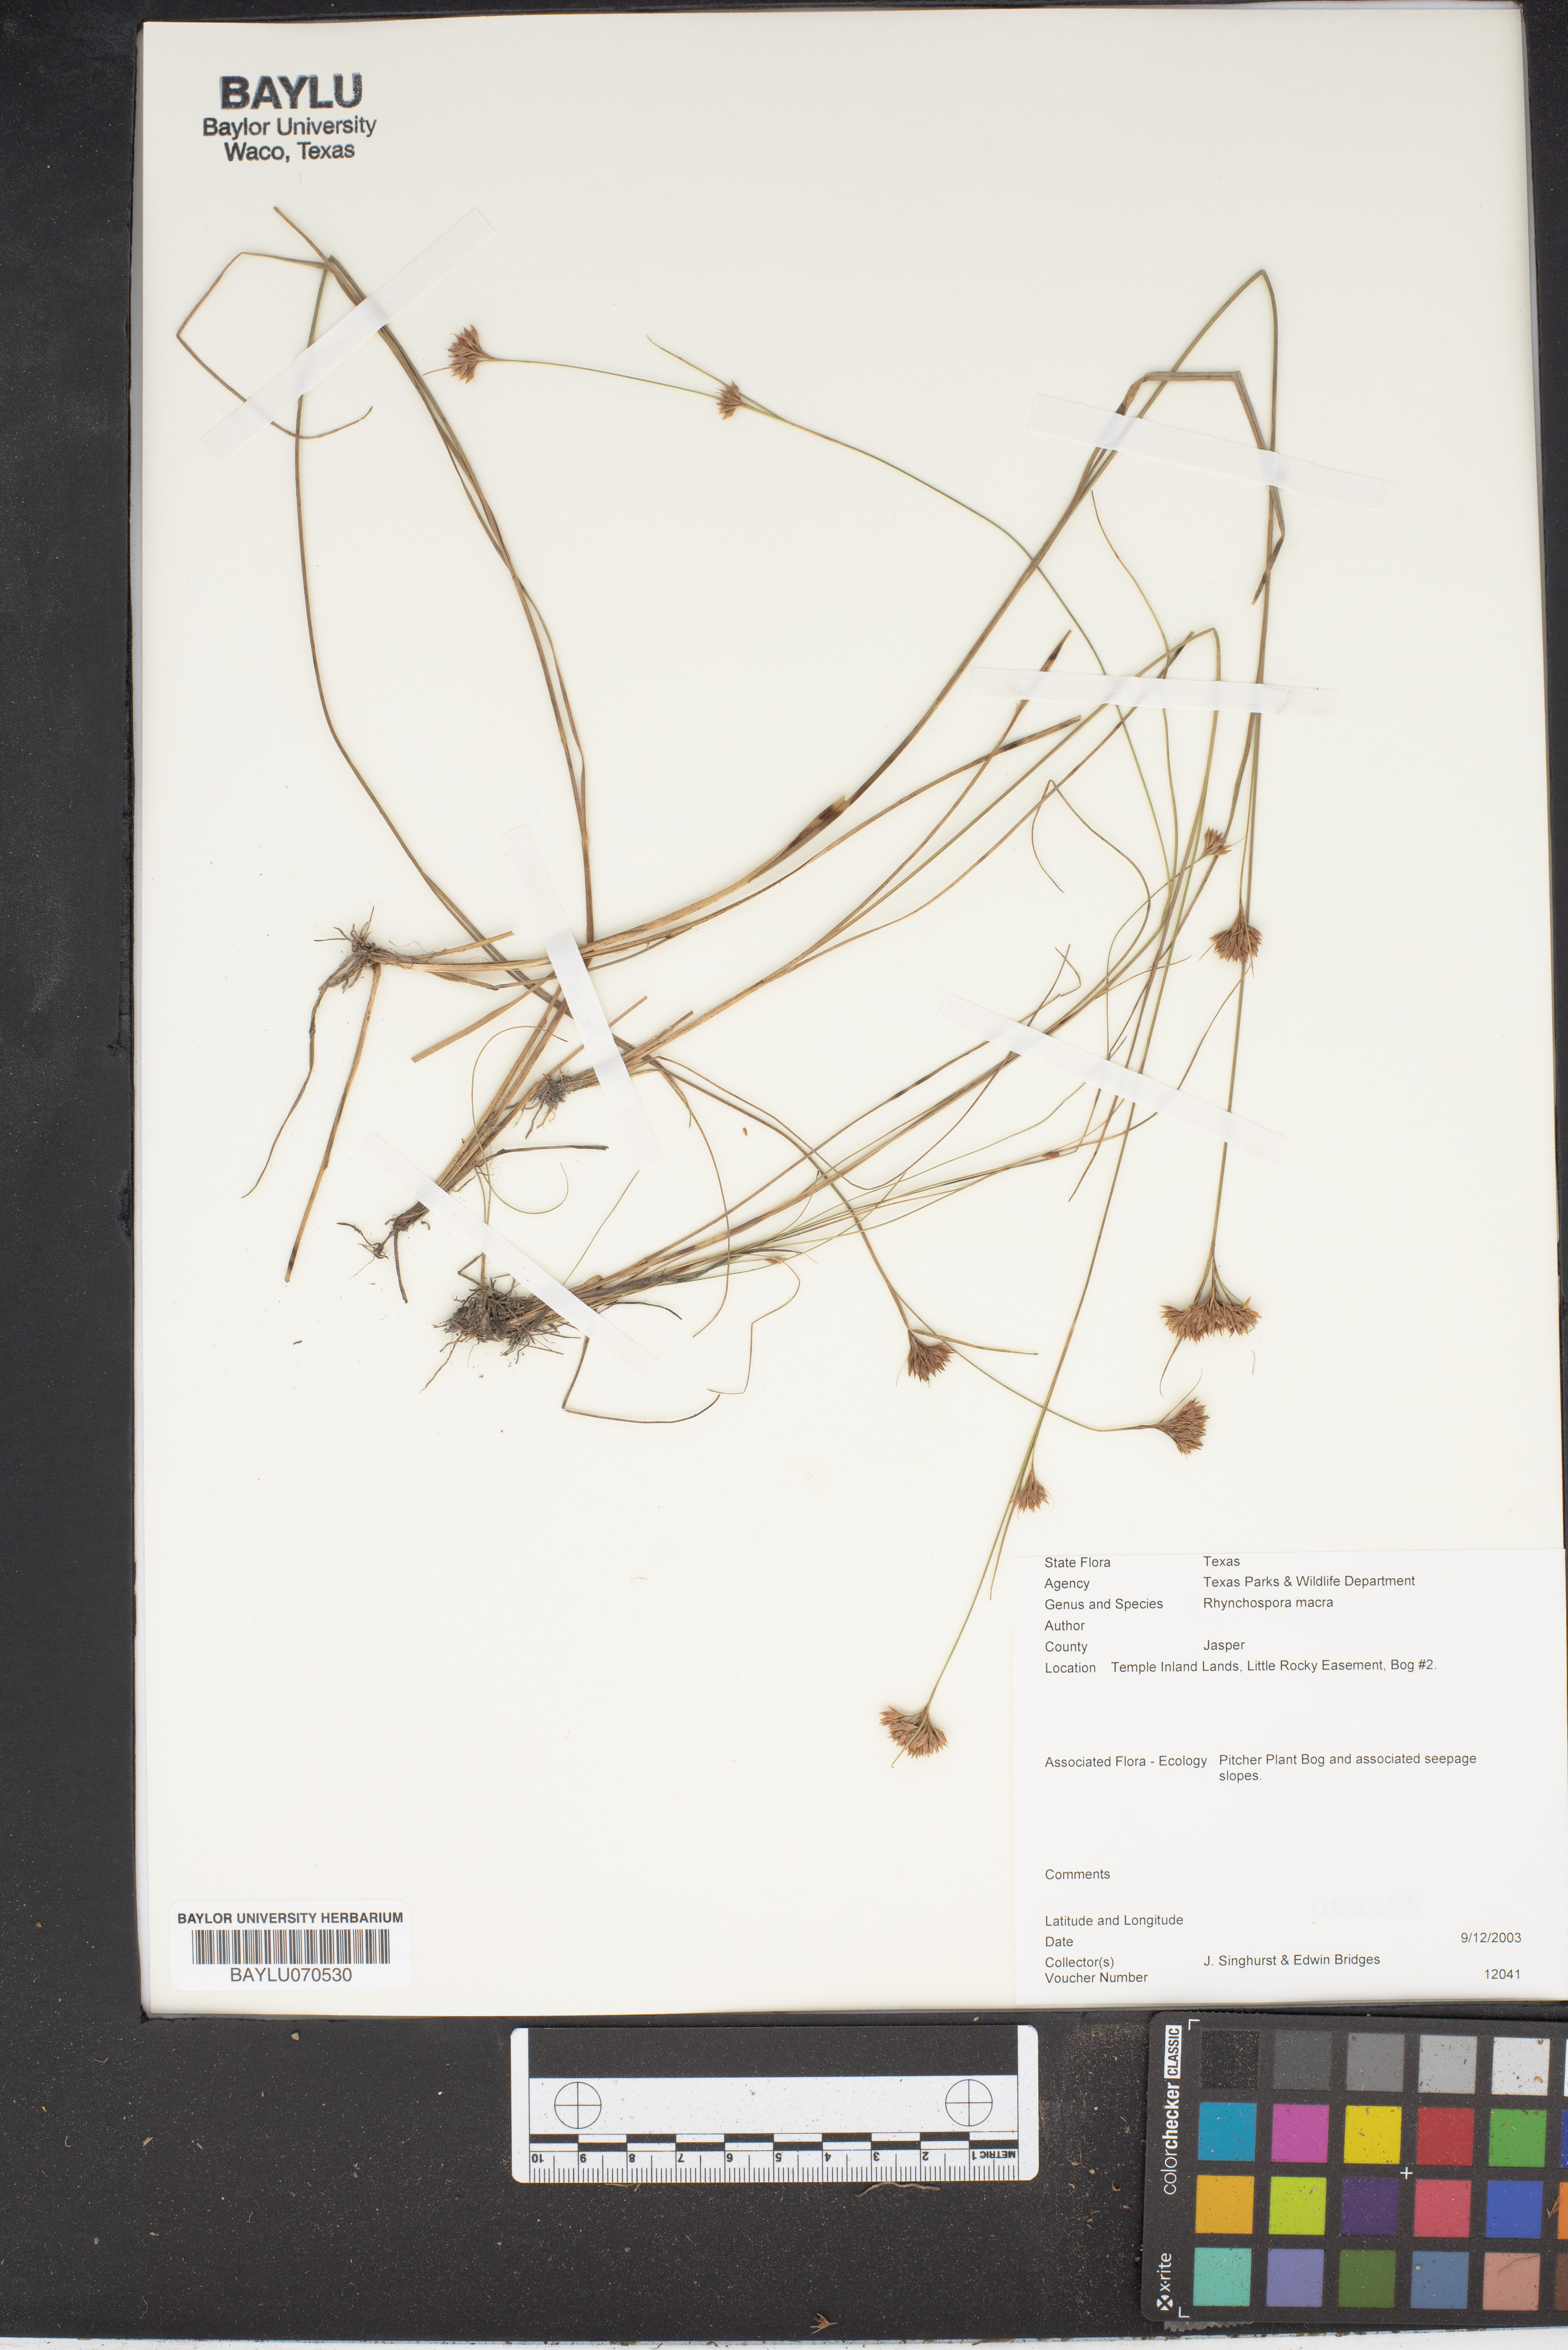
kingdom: Plantae
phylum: Tracheophyta
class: Liliopsida
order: Poales
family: Cyperaceae
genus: Rhynchospora
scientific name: Rhynchospora macra
